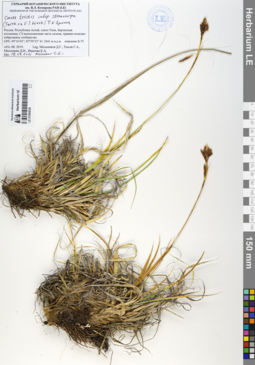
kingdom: Plantae
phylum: Tracheophyta
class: Liliopsida
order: Poales
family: Cyperaceae
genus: Carex
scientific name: Carex stenocarpa
